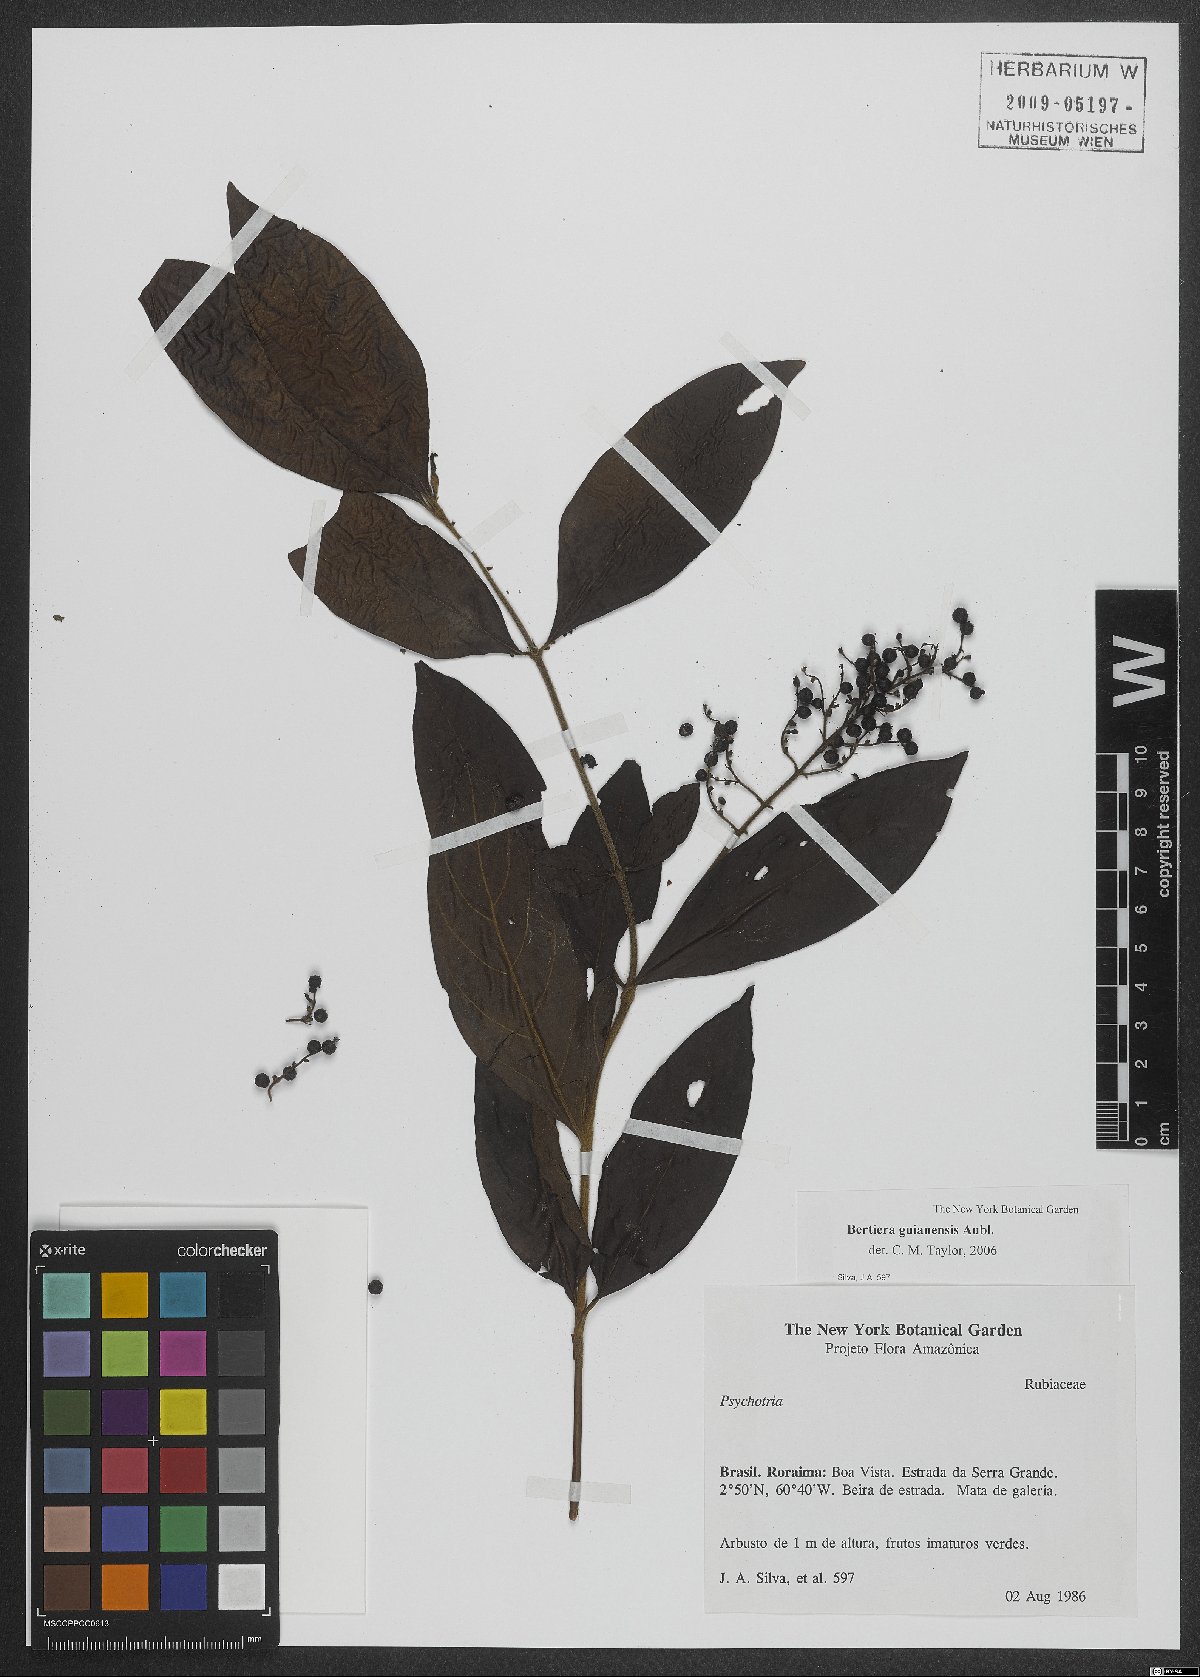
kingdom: Plantae
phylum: Tracheophyta
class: Magnoliopsida
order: Gentianales
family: Rubiaceae
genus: Bertiera
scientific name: Bertiera guianensis
